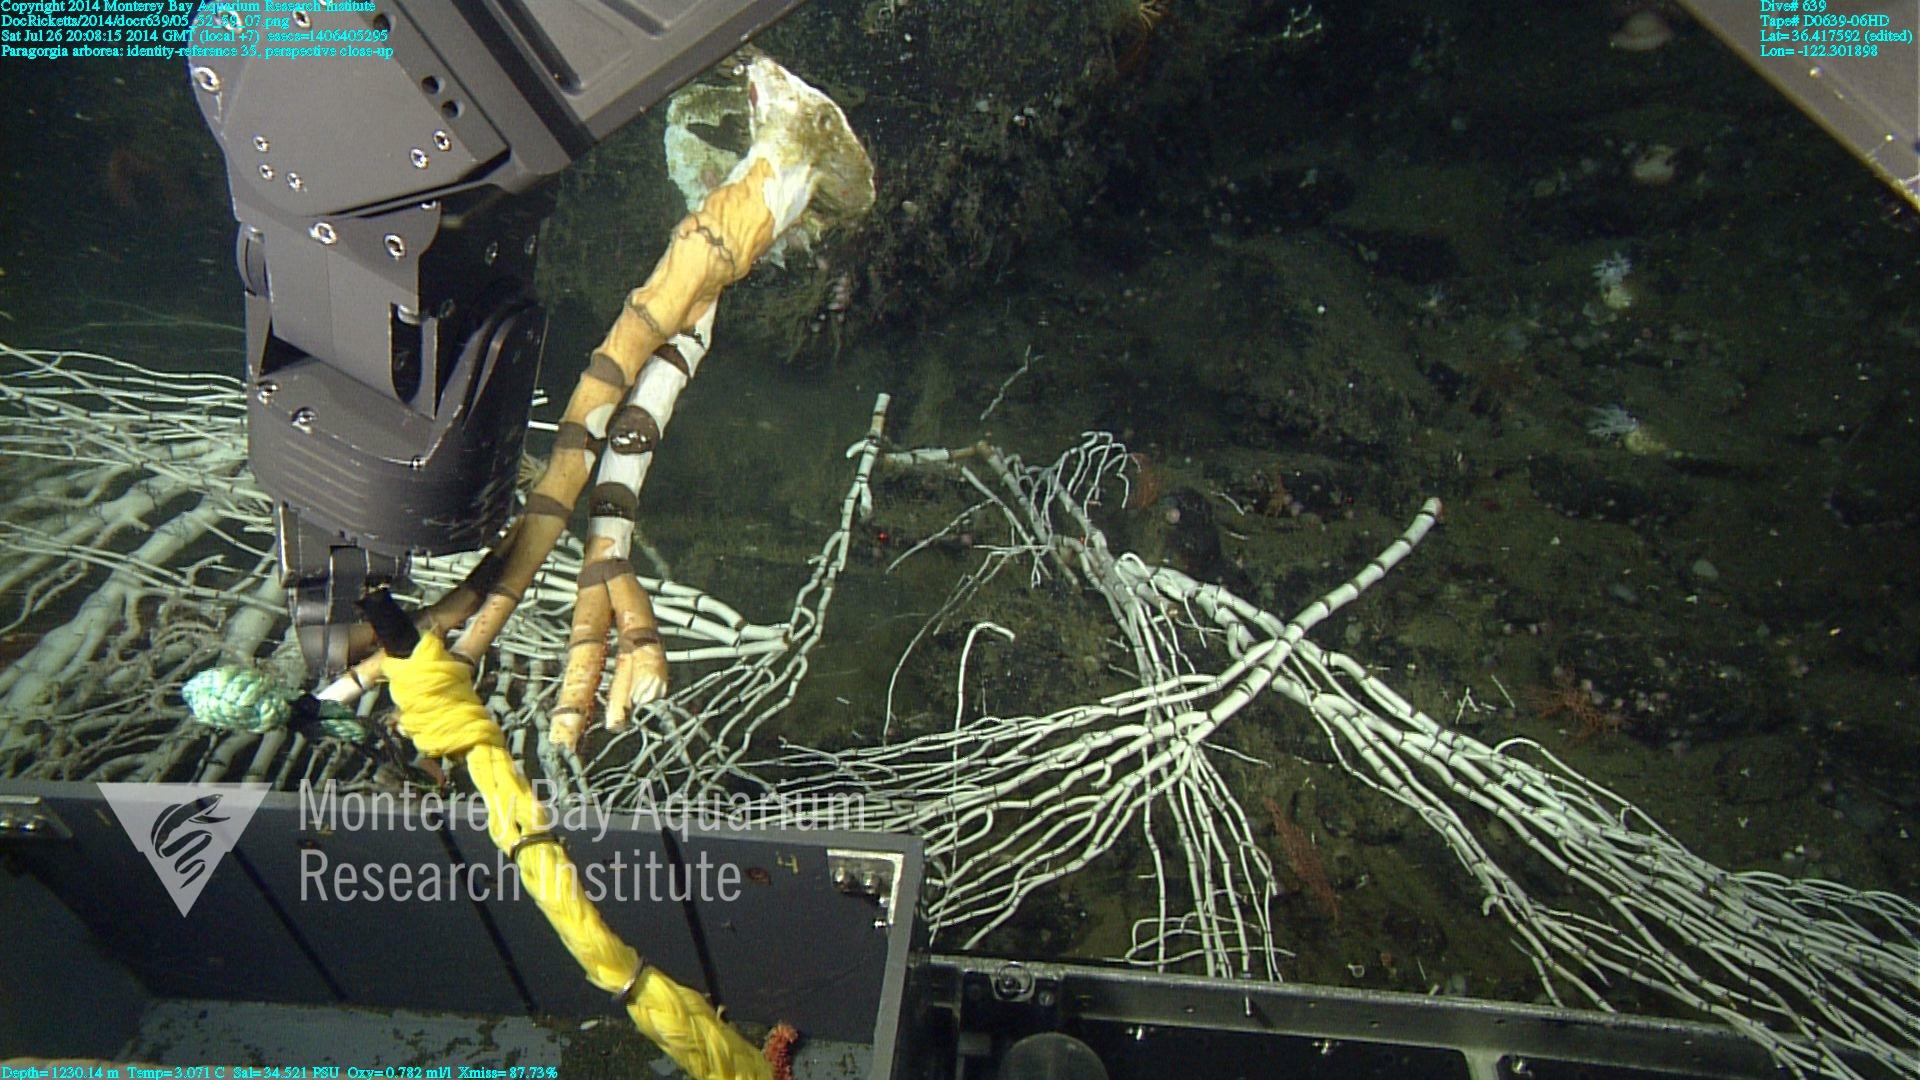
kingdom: Animalia
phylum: Cnidaria
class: Anthozoa
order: Scleralcyonacea
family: Coralliidae
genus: Paragorgia
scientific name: Paragorgia arborea
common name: Bubble gum coral
